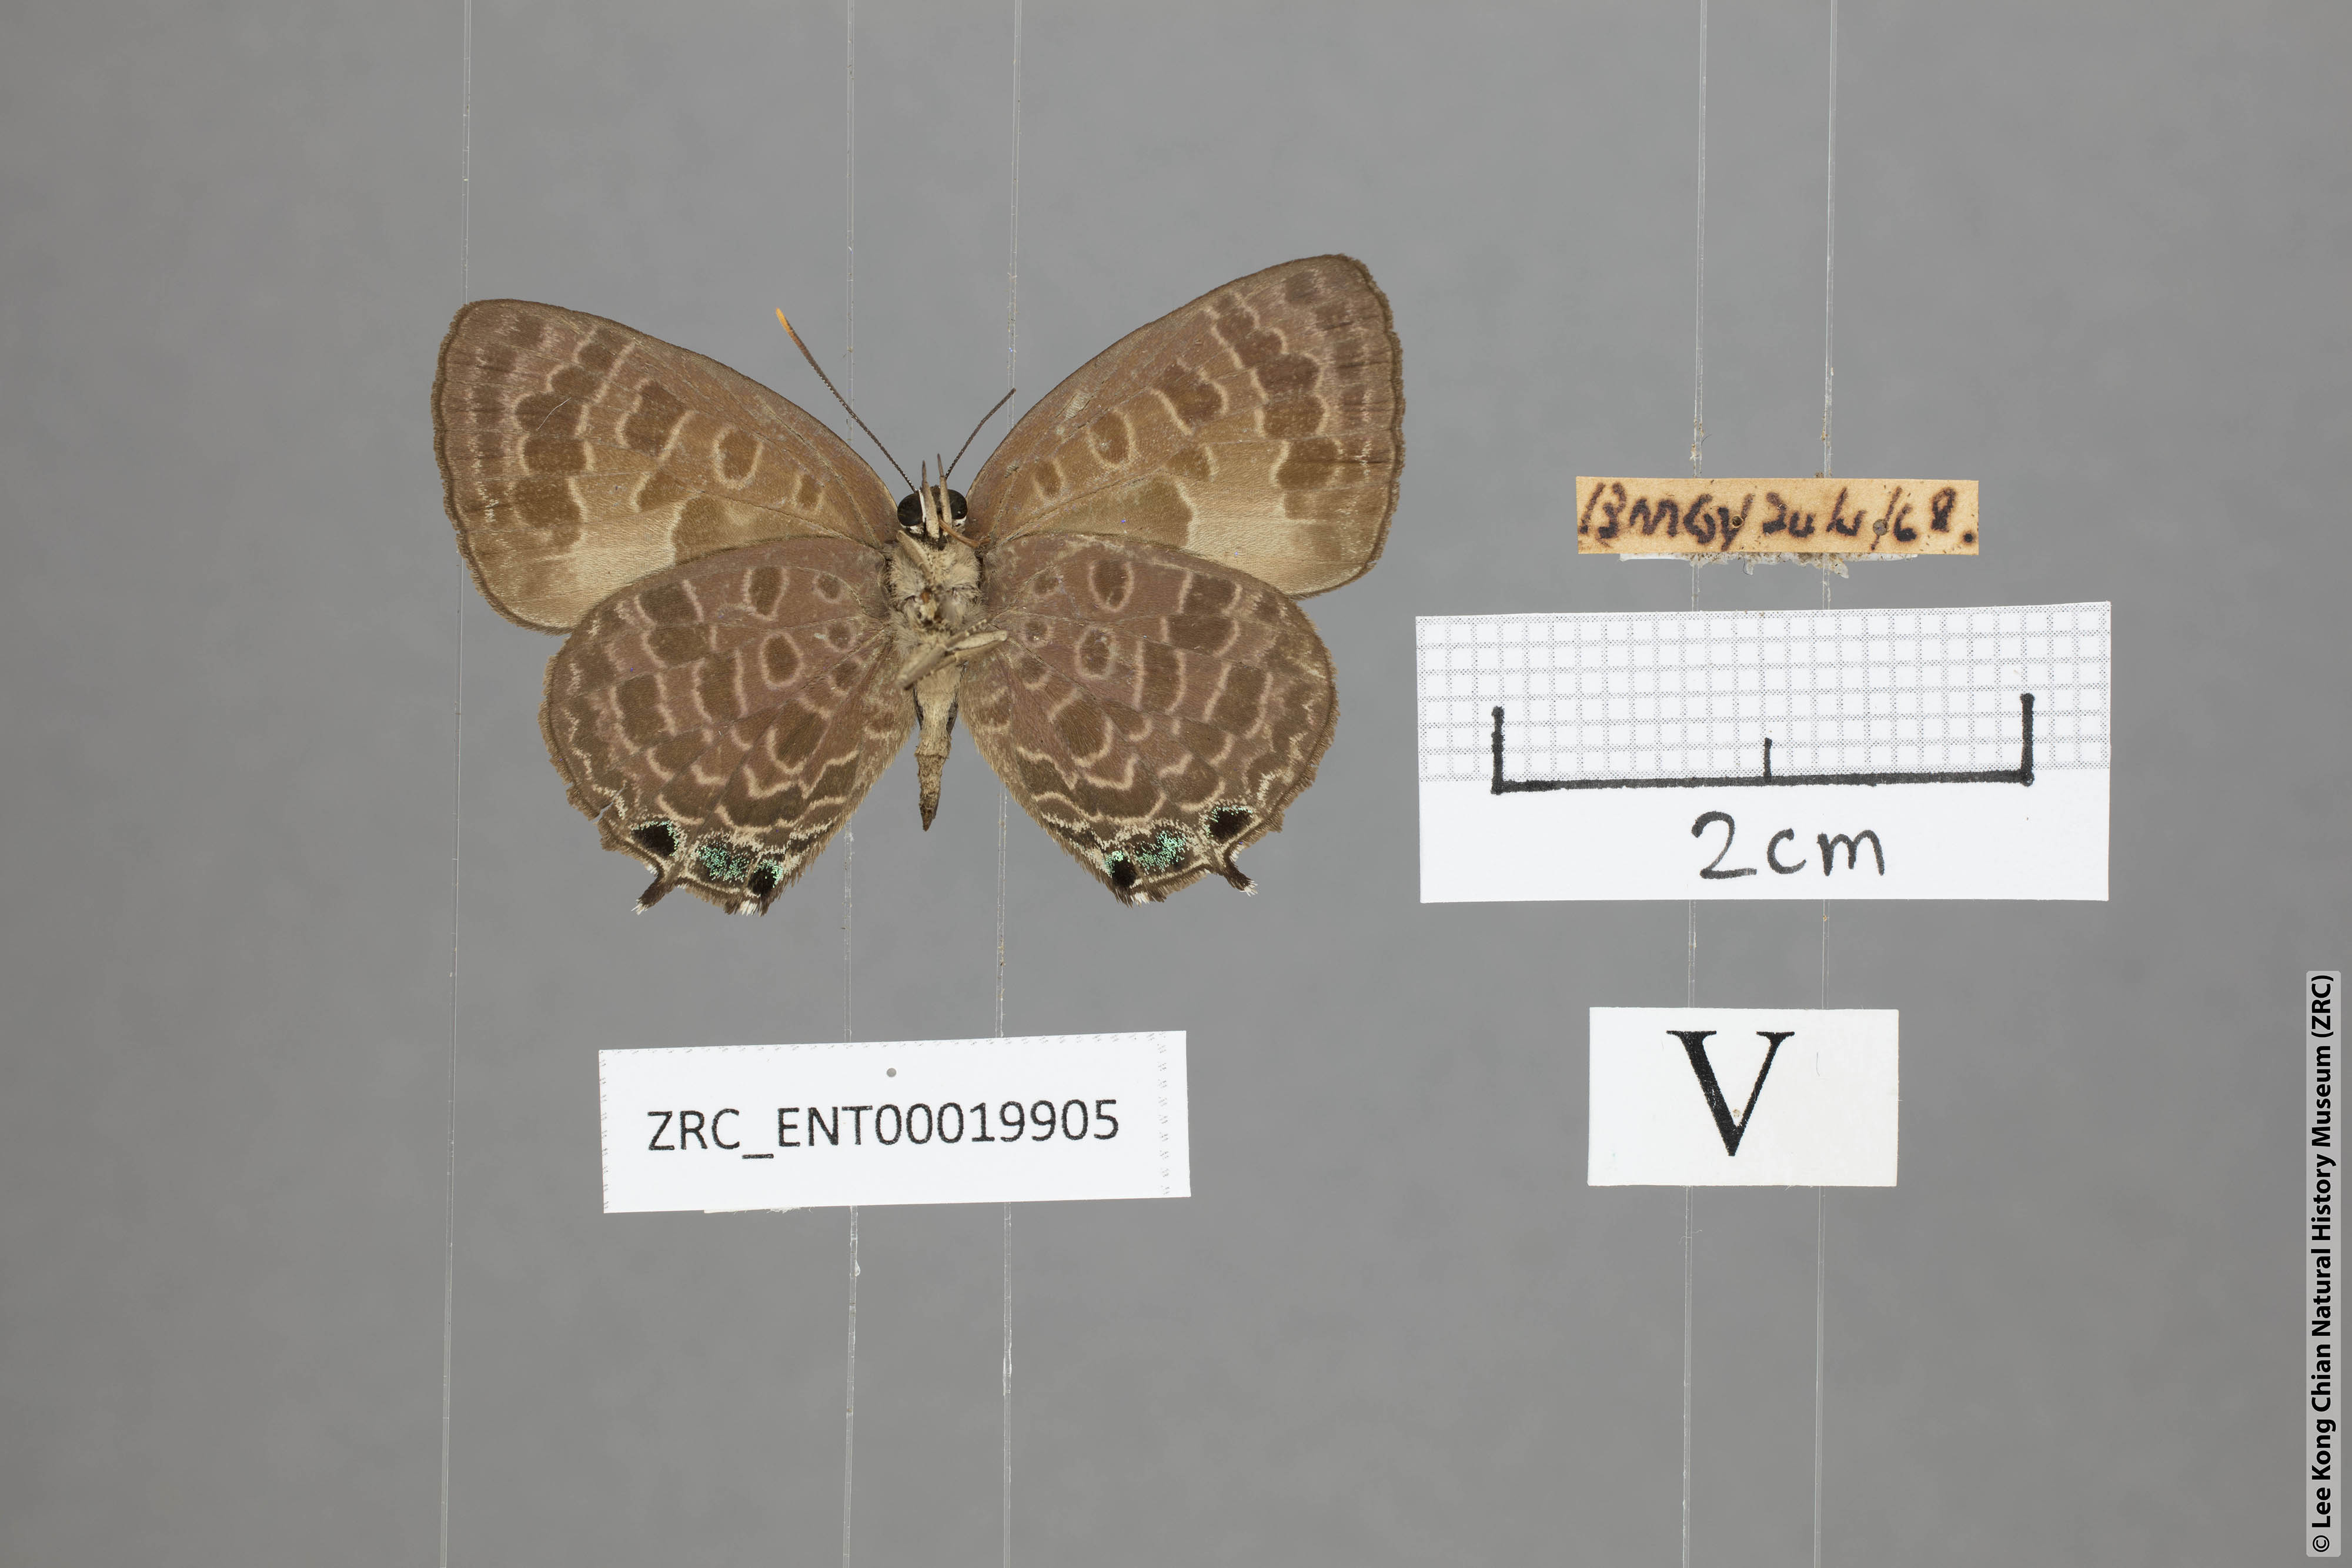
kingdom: Animalia
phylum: Arthropoda
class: Insecta
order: Lepidoptera
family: Lycaenidae
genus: Arhopala
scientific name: Arhopala trogon
